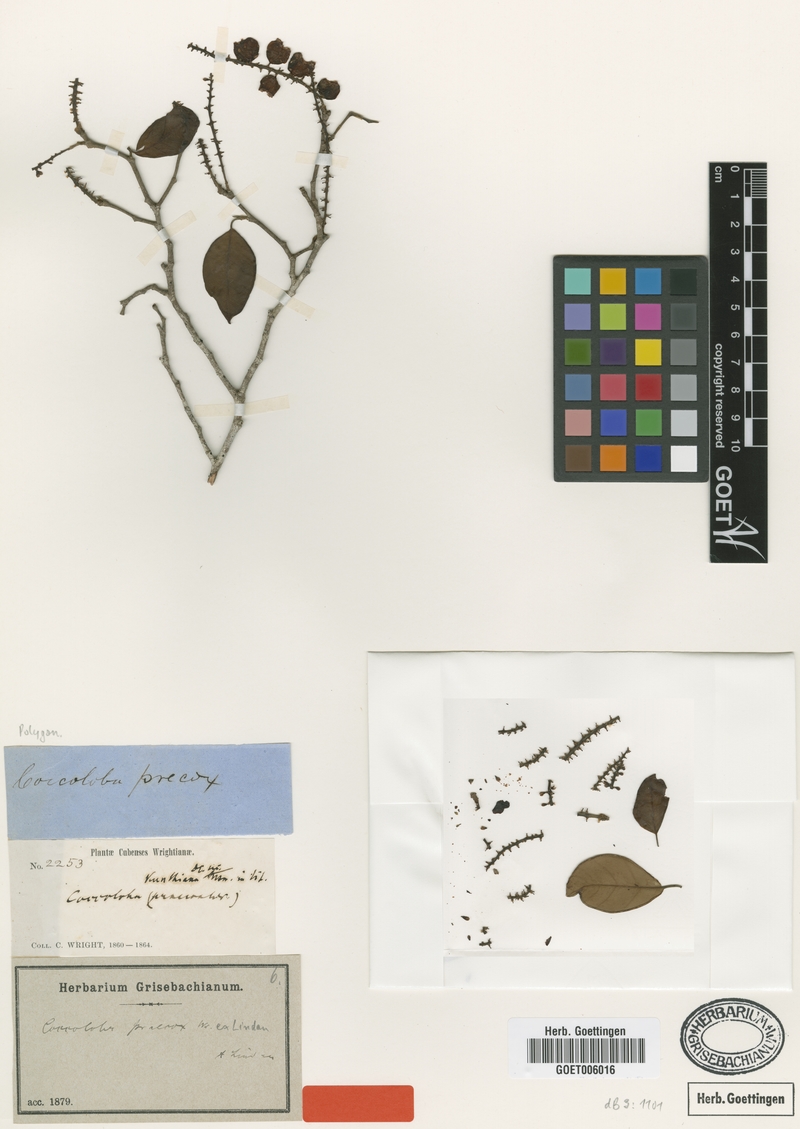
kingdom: Plantae
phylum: Tracheophyta
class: Magnoliopsida
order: Caryophyllales
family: Polygonaceae
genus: Coccoloba
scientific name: Coccoloba praecox
